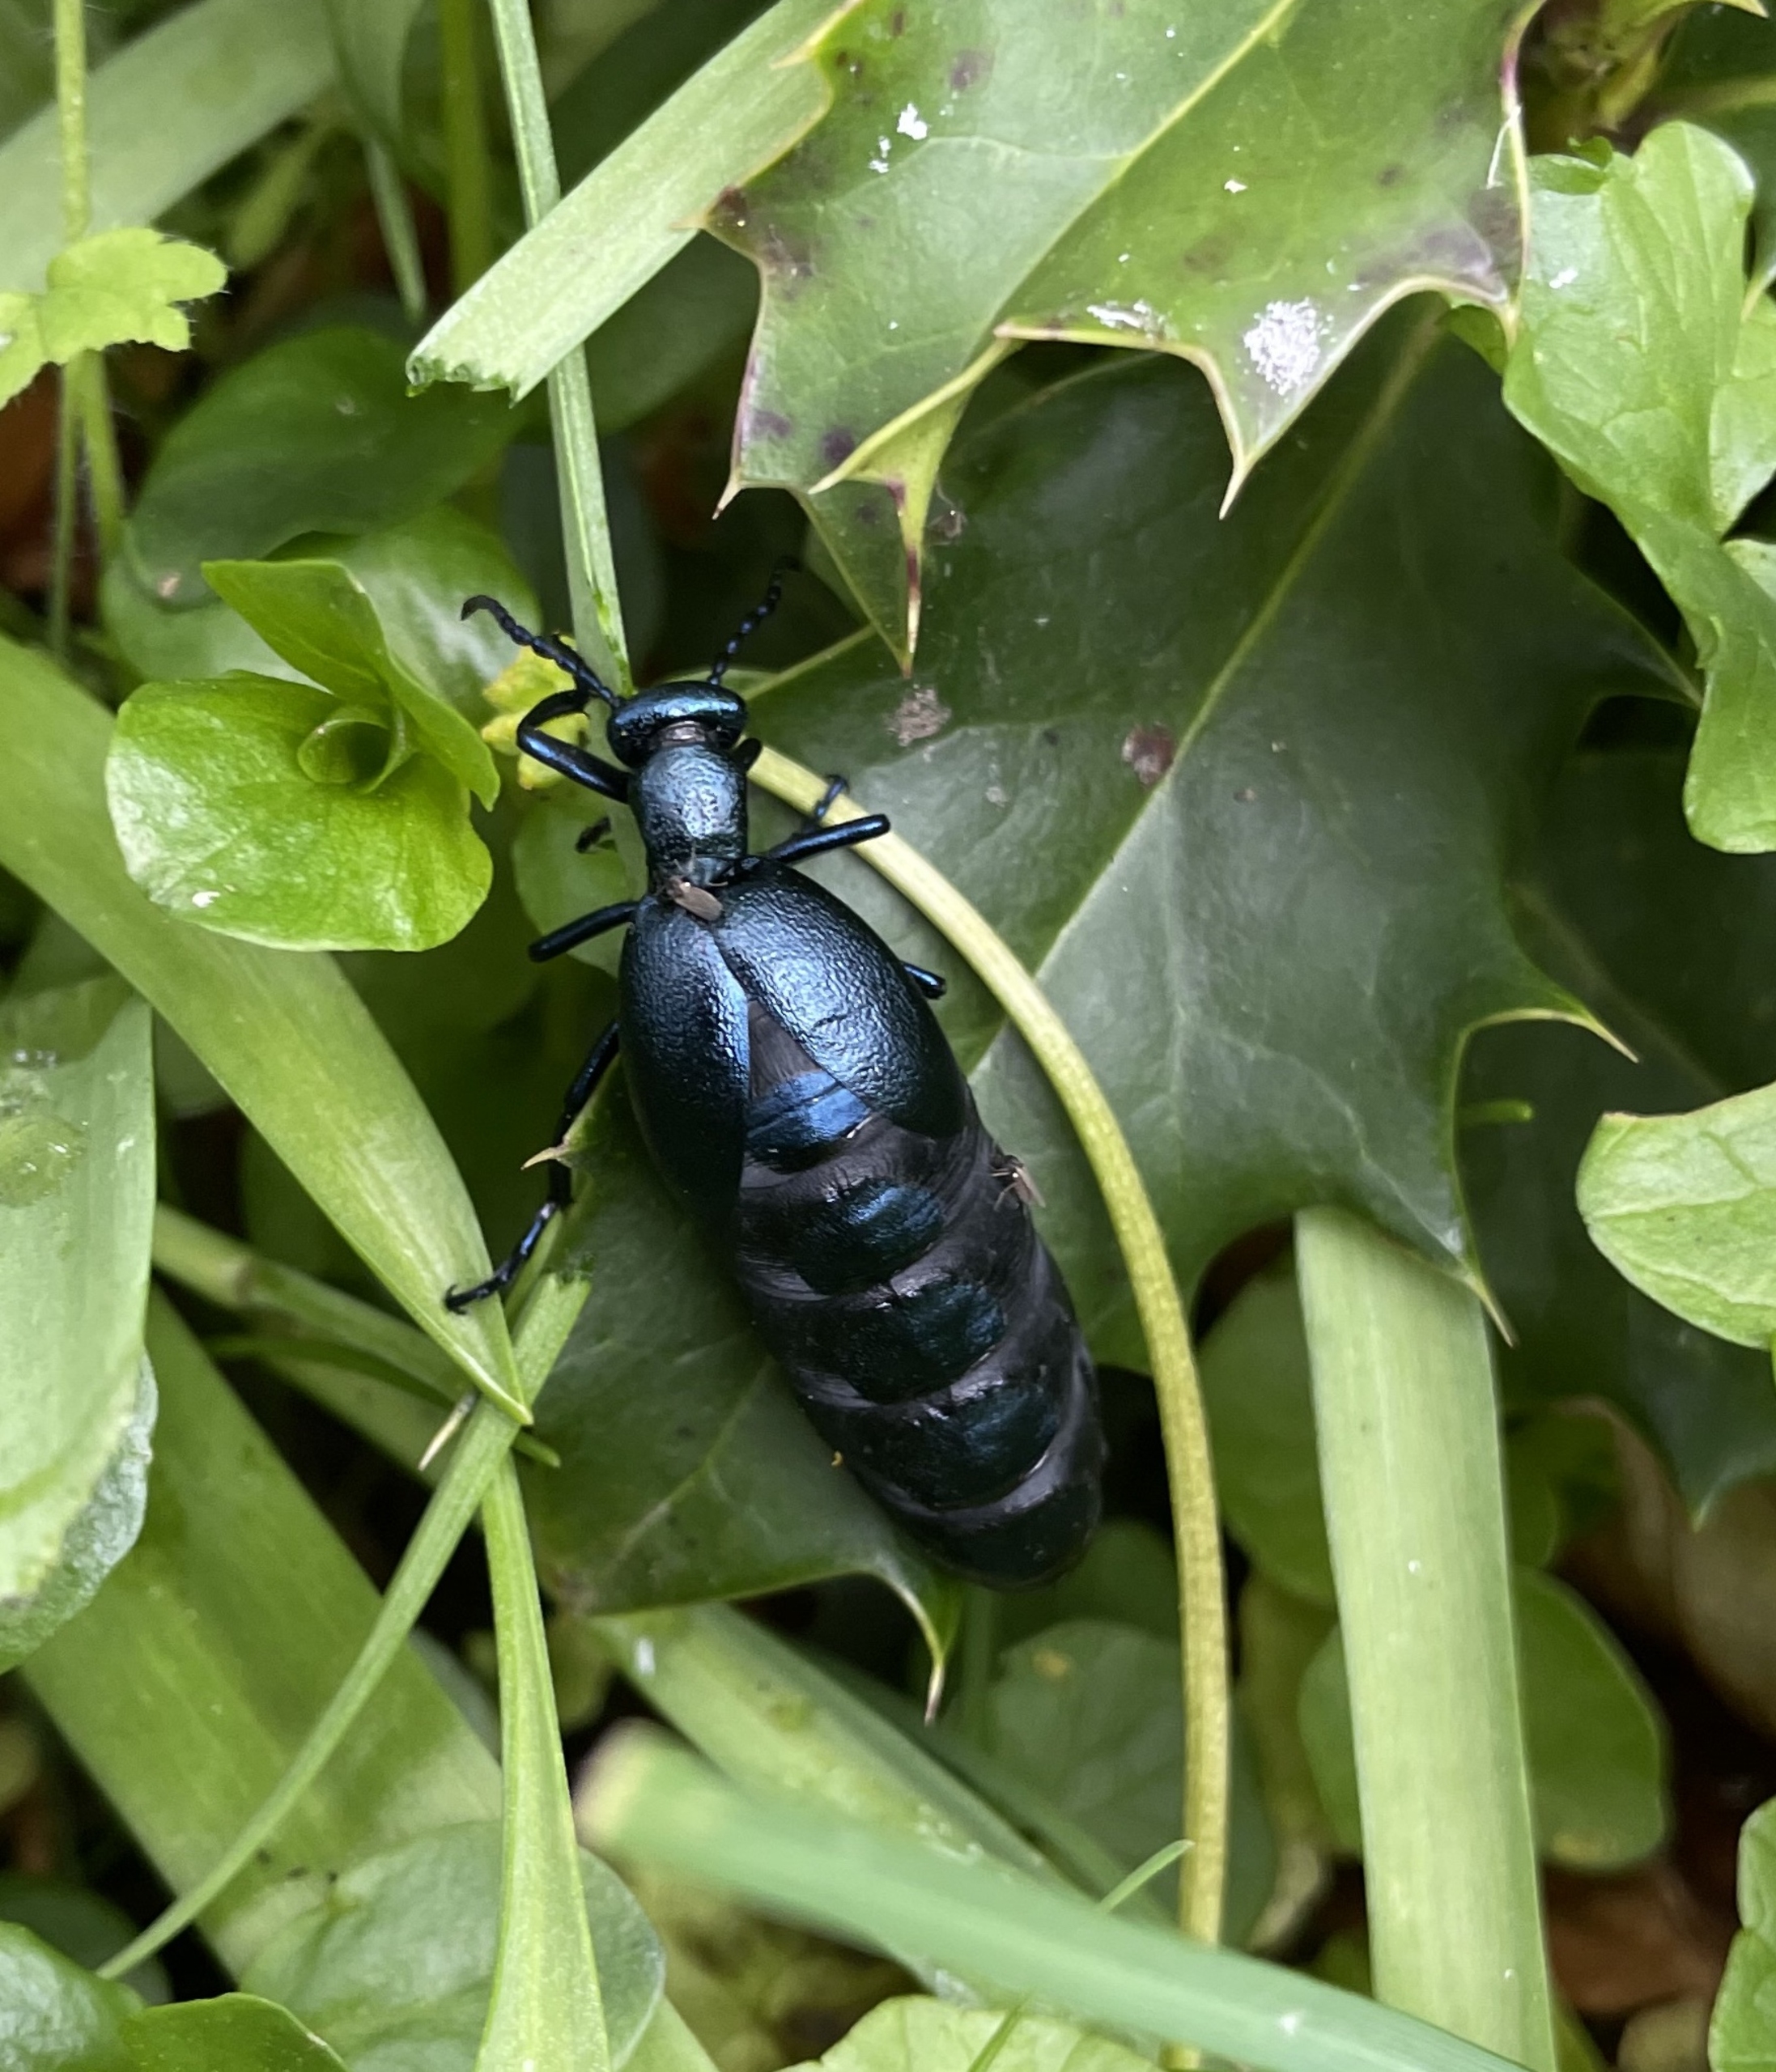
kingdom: Animalia
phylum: Arthropoda
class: Insecta
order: Coleoptera
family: Meloidae
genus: Meloe
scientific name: Meloe violaceus
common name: Blå oliebille
